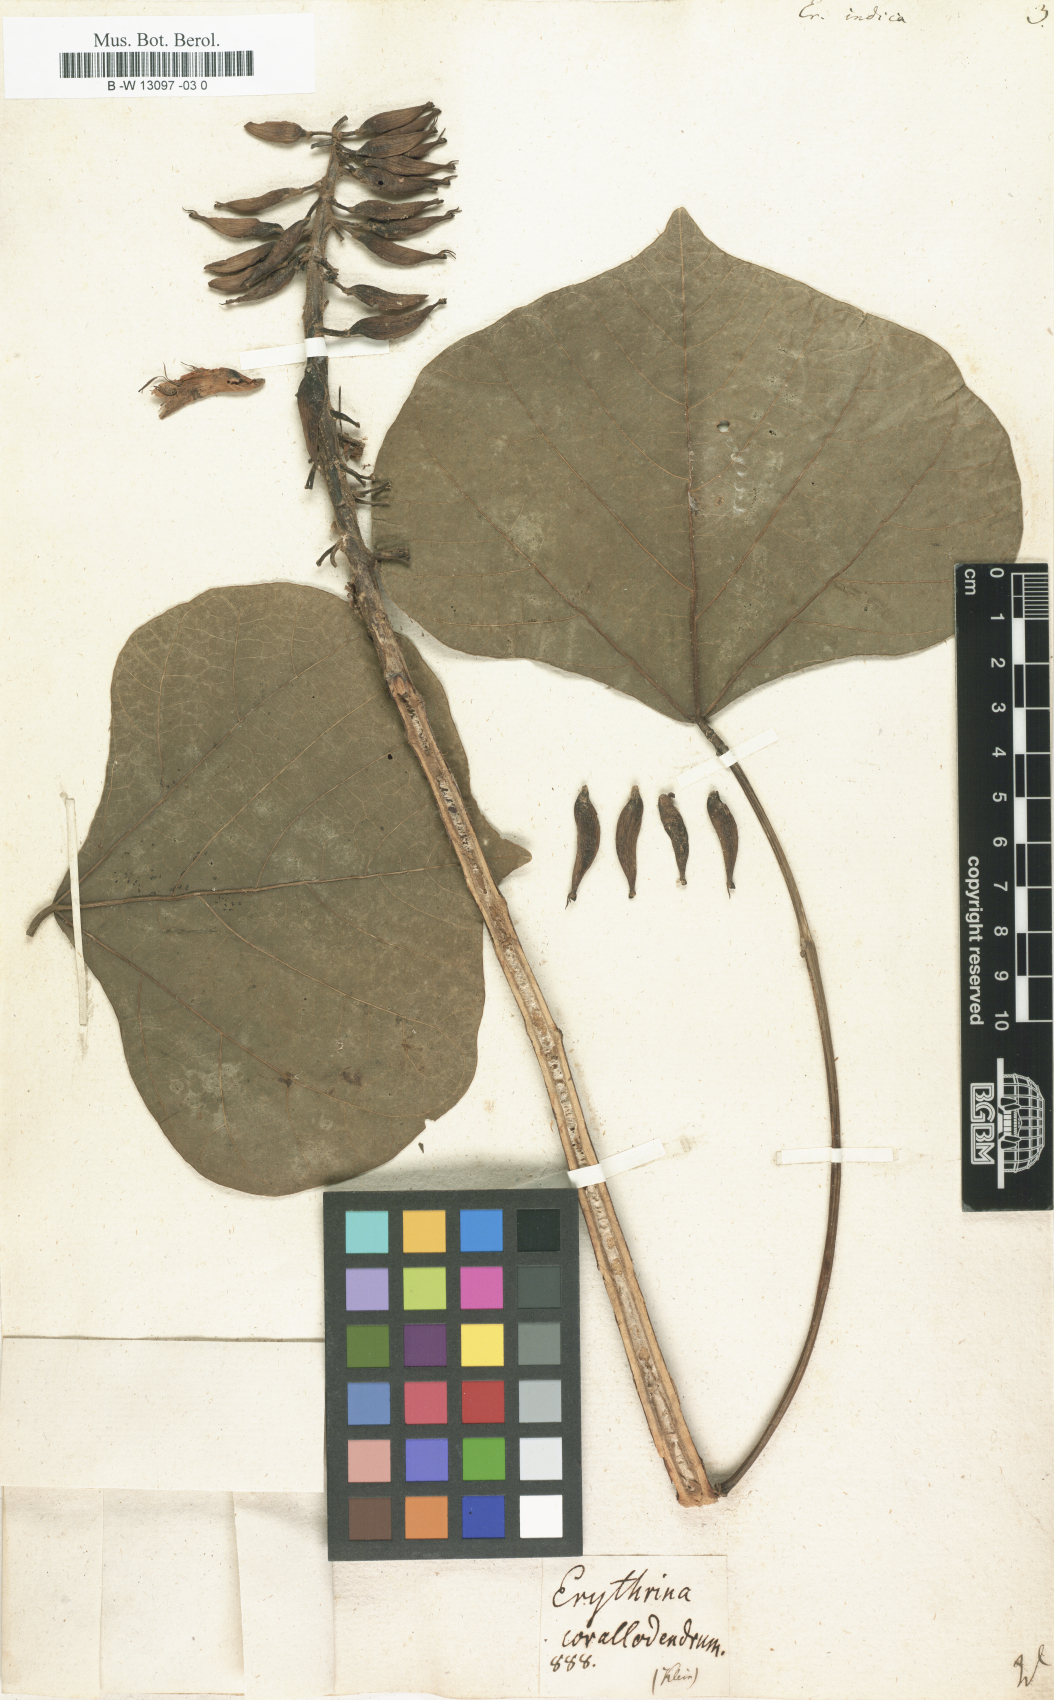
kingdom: Plantae
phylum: Tracheophyta
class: Magnoliopsida
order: Fabales
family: Fabaceae
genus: Erythrina
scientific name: Erythrina indica
